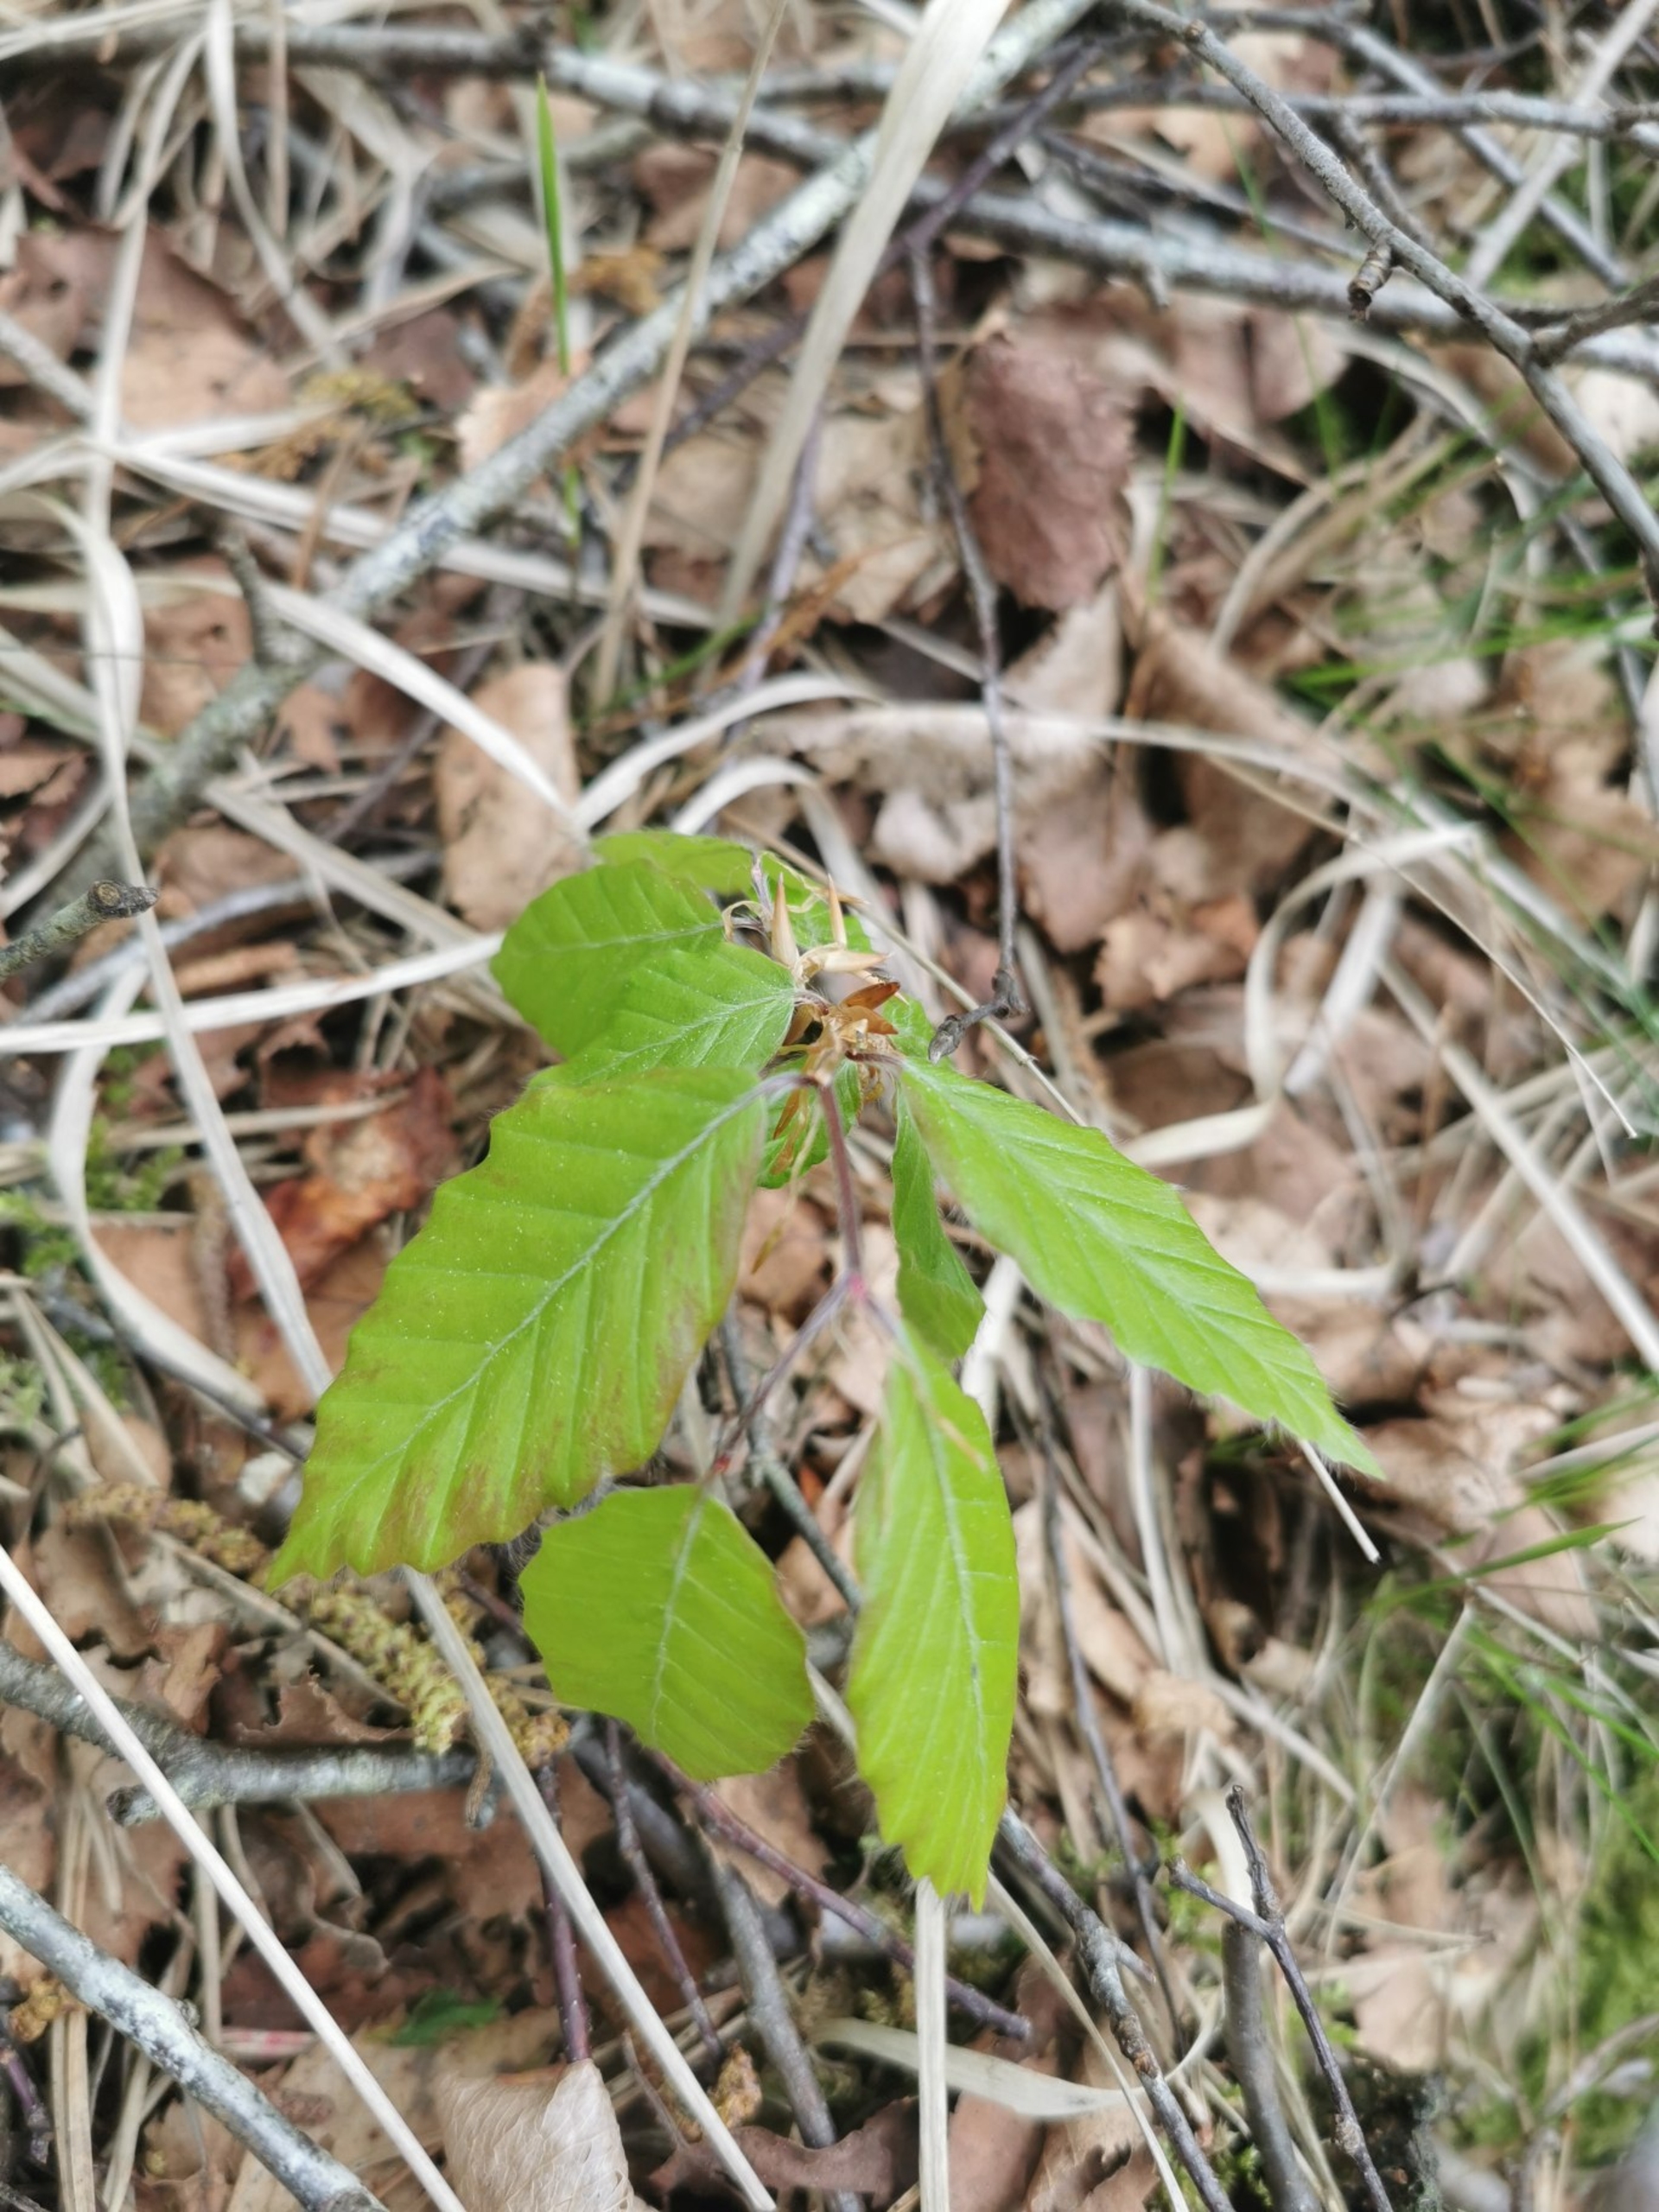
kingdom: Plantae
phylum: Tracheophyta
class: Magnoliopsida
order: Fagales
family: Fagaceae
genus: Fagus
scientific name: Fagus sylvatica
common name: Bøg
